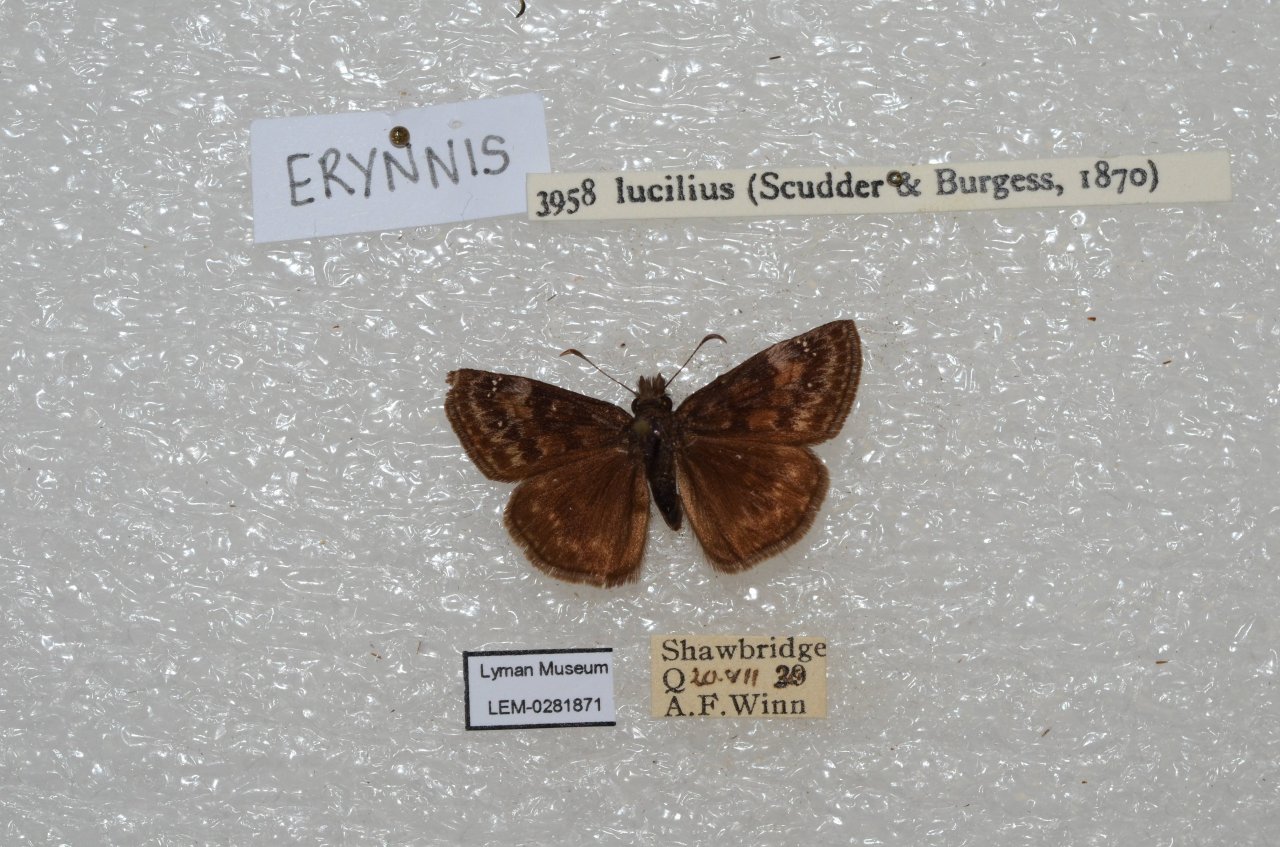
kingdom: Animalia
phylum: Arthropoda
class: Insecta
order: Lepidoptera
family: Hesperiidae
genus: Gesta
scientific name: Gesta
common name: Columbine Duskywing
